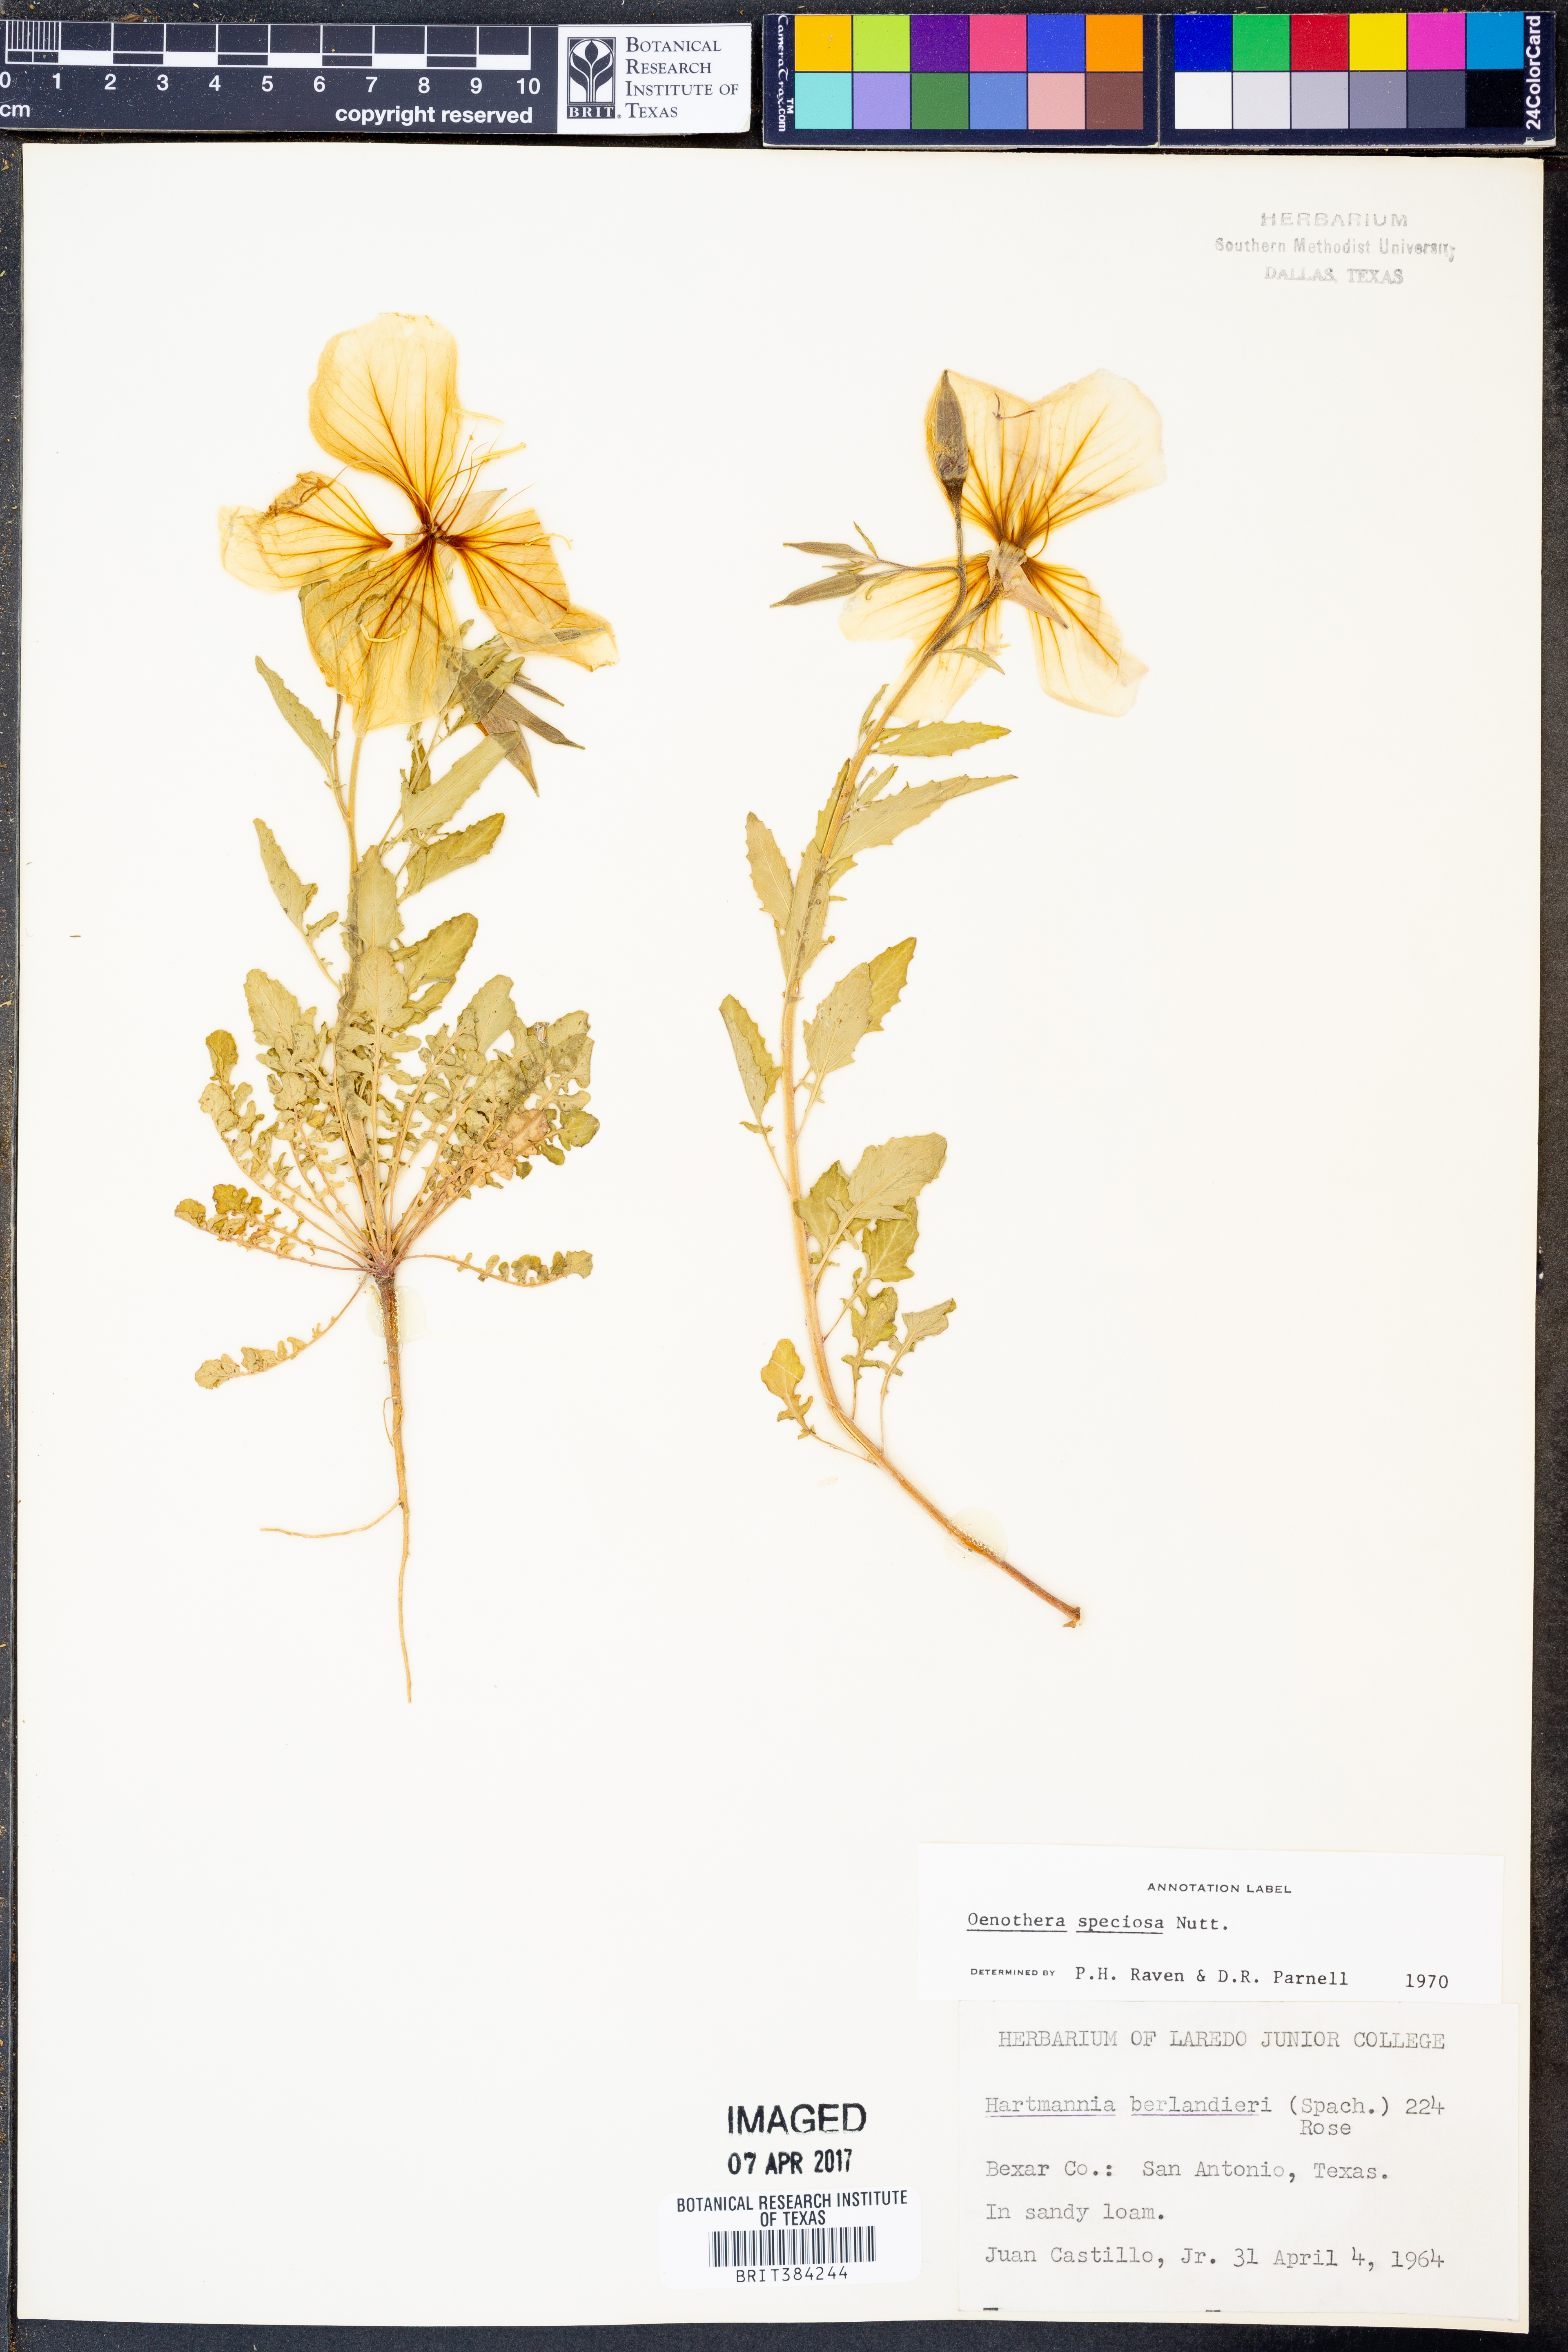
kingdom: Plantae
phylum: Tracheophyta
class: Magnoliopsida
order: Myrtales
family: Onagraceae
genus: Oenothera
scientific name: Oenothera speciosa
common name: White evening-primrose
